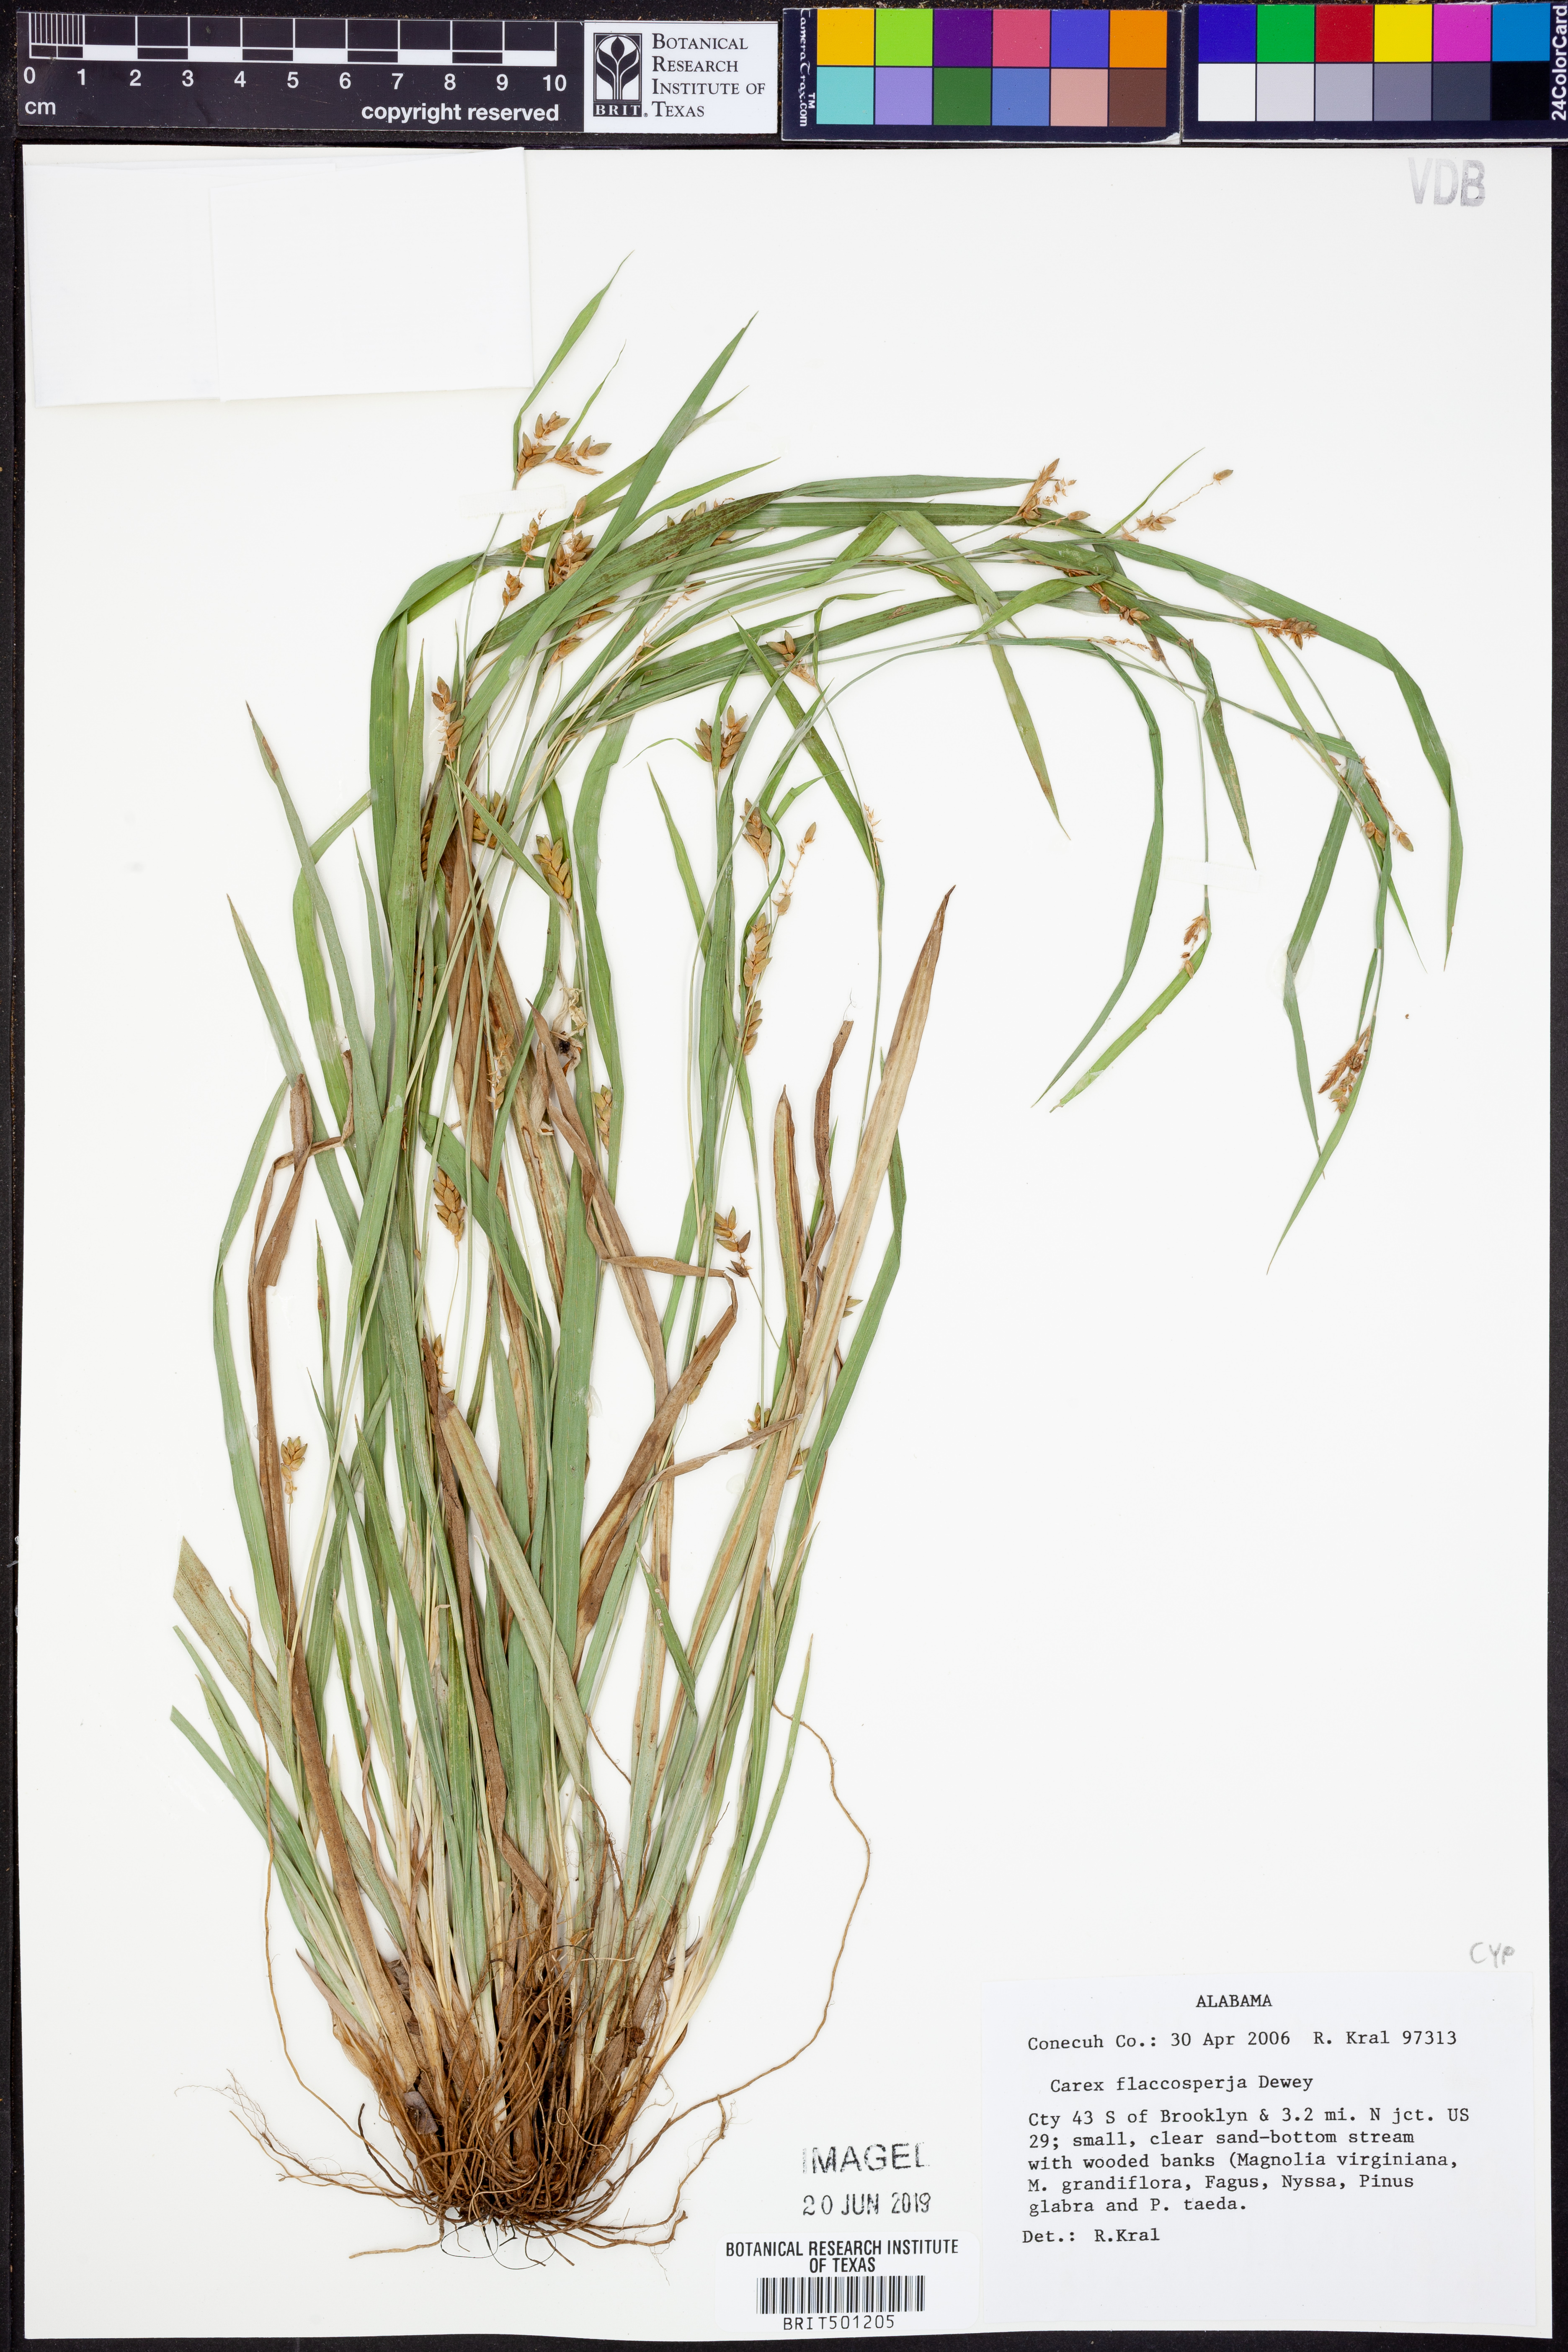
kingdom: Plantae
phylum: Tracheophyta
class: Liliopsida
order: Poales
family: Cyperaceae
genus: Carex
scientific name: Carex flaccosperma
